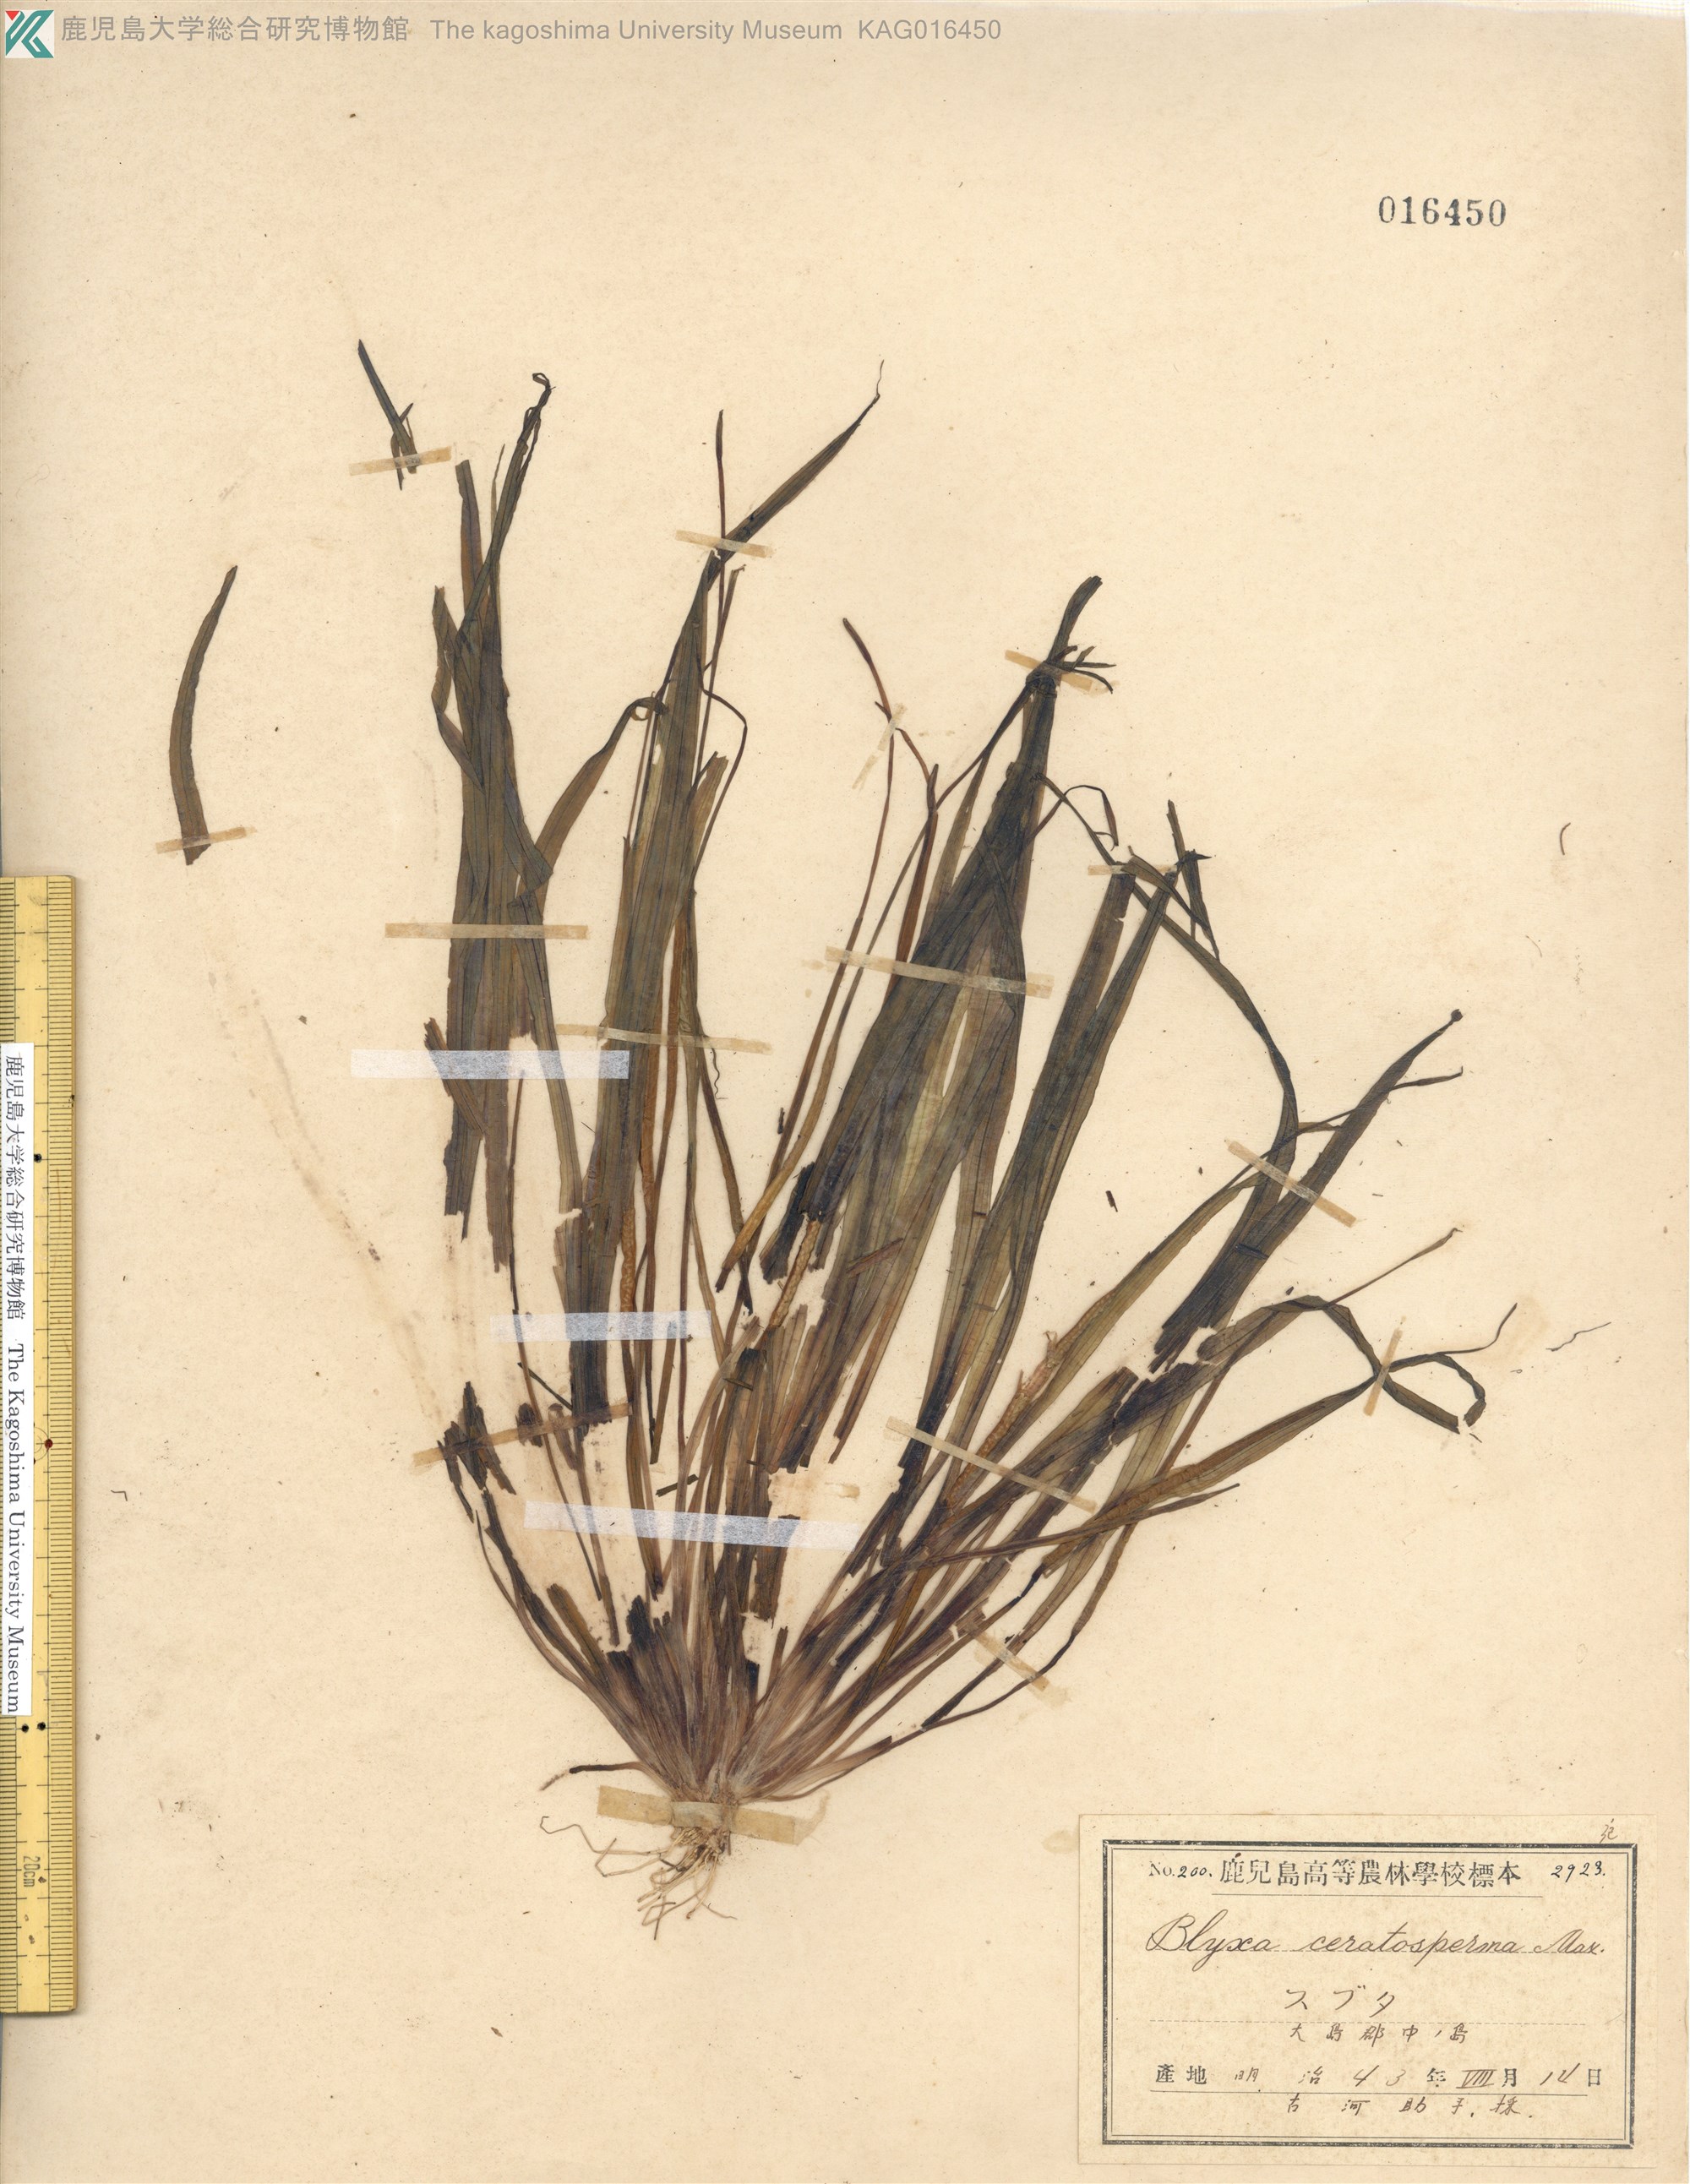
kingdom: Plantae
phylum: Tracheophyta
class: Liliopsida
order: Alismatales
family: Hydrocharitaceae
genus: Blyxa
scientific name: Blyxa echinosperma
